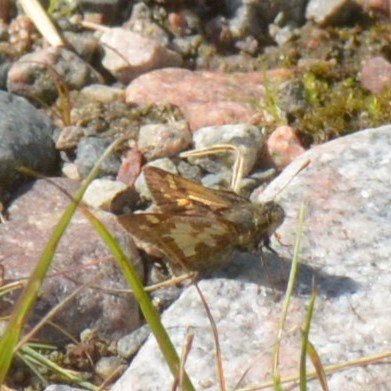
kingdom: Animalia
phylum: Arthropoda
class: Insecta
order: Lepidoptera
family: Hesperiidae
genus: Polites
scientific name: Polites coras
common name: Peck's Skipper
